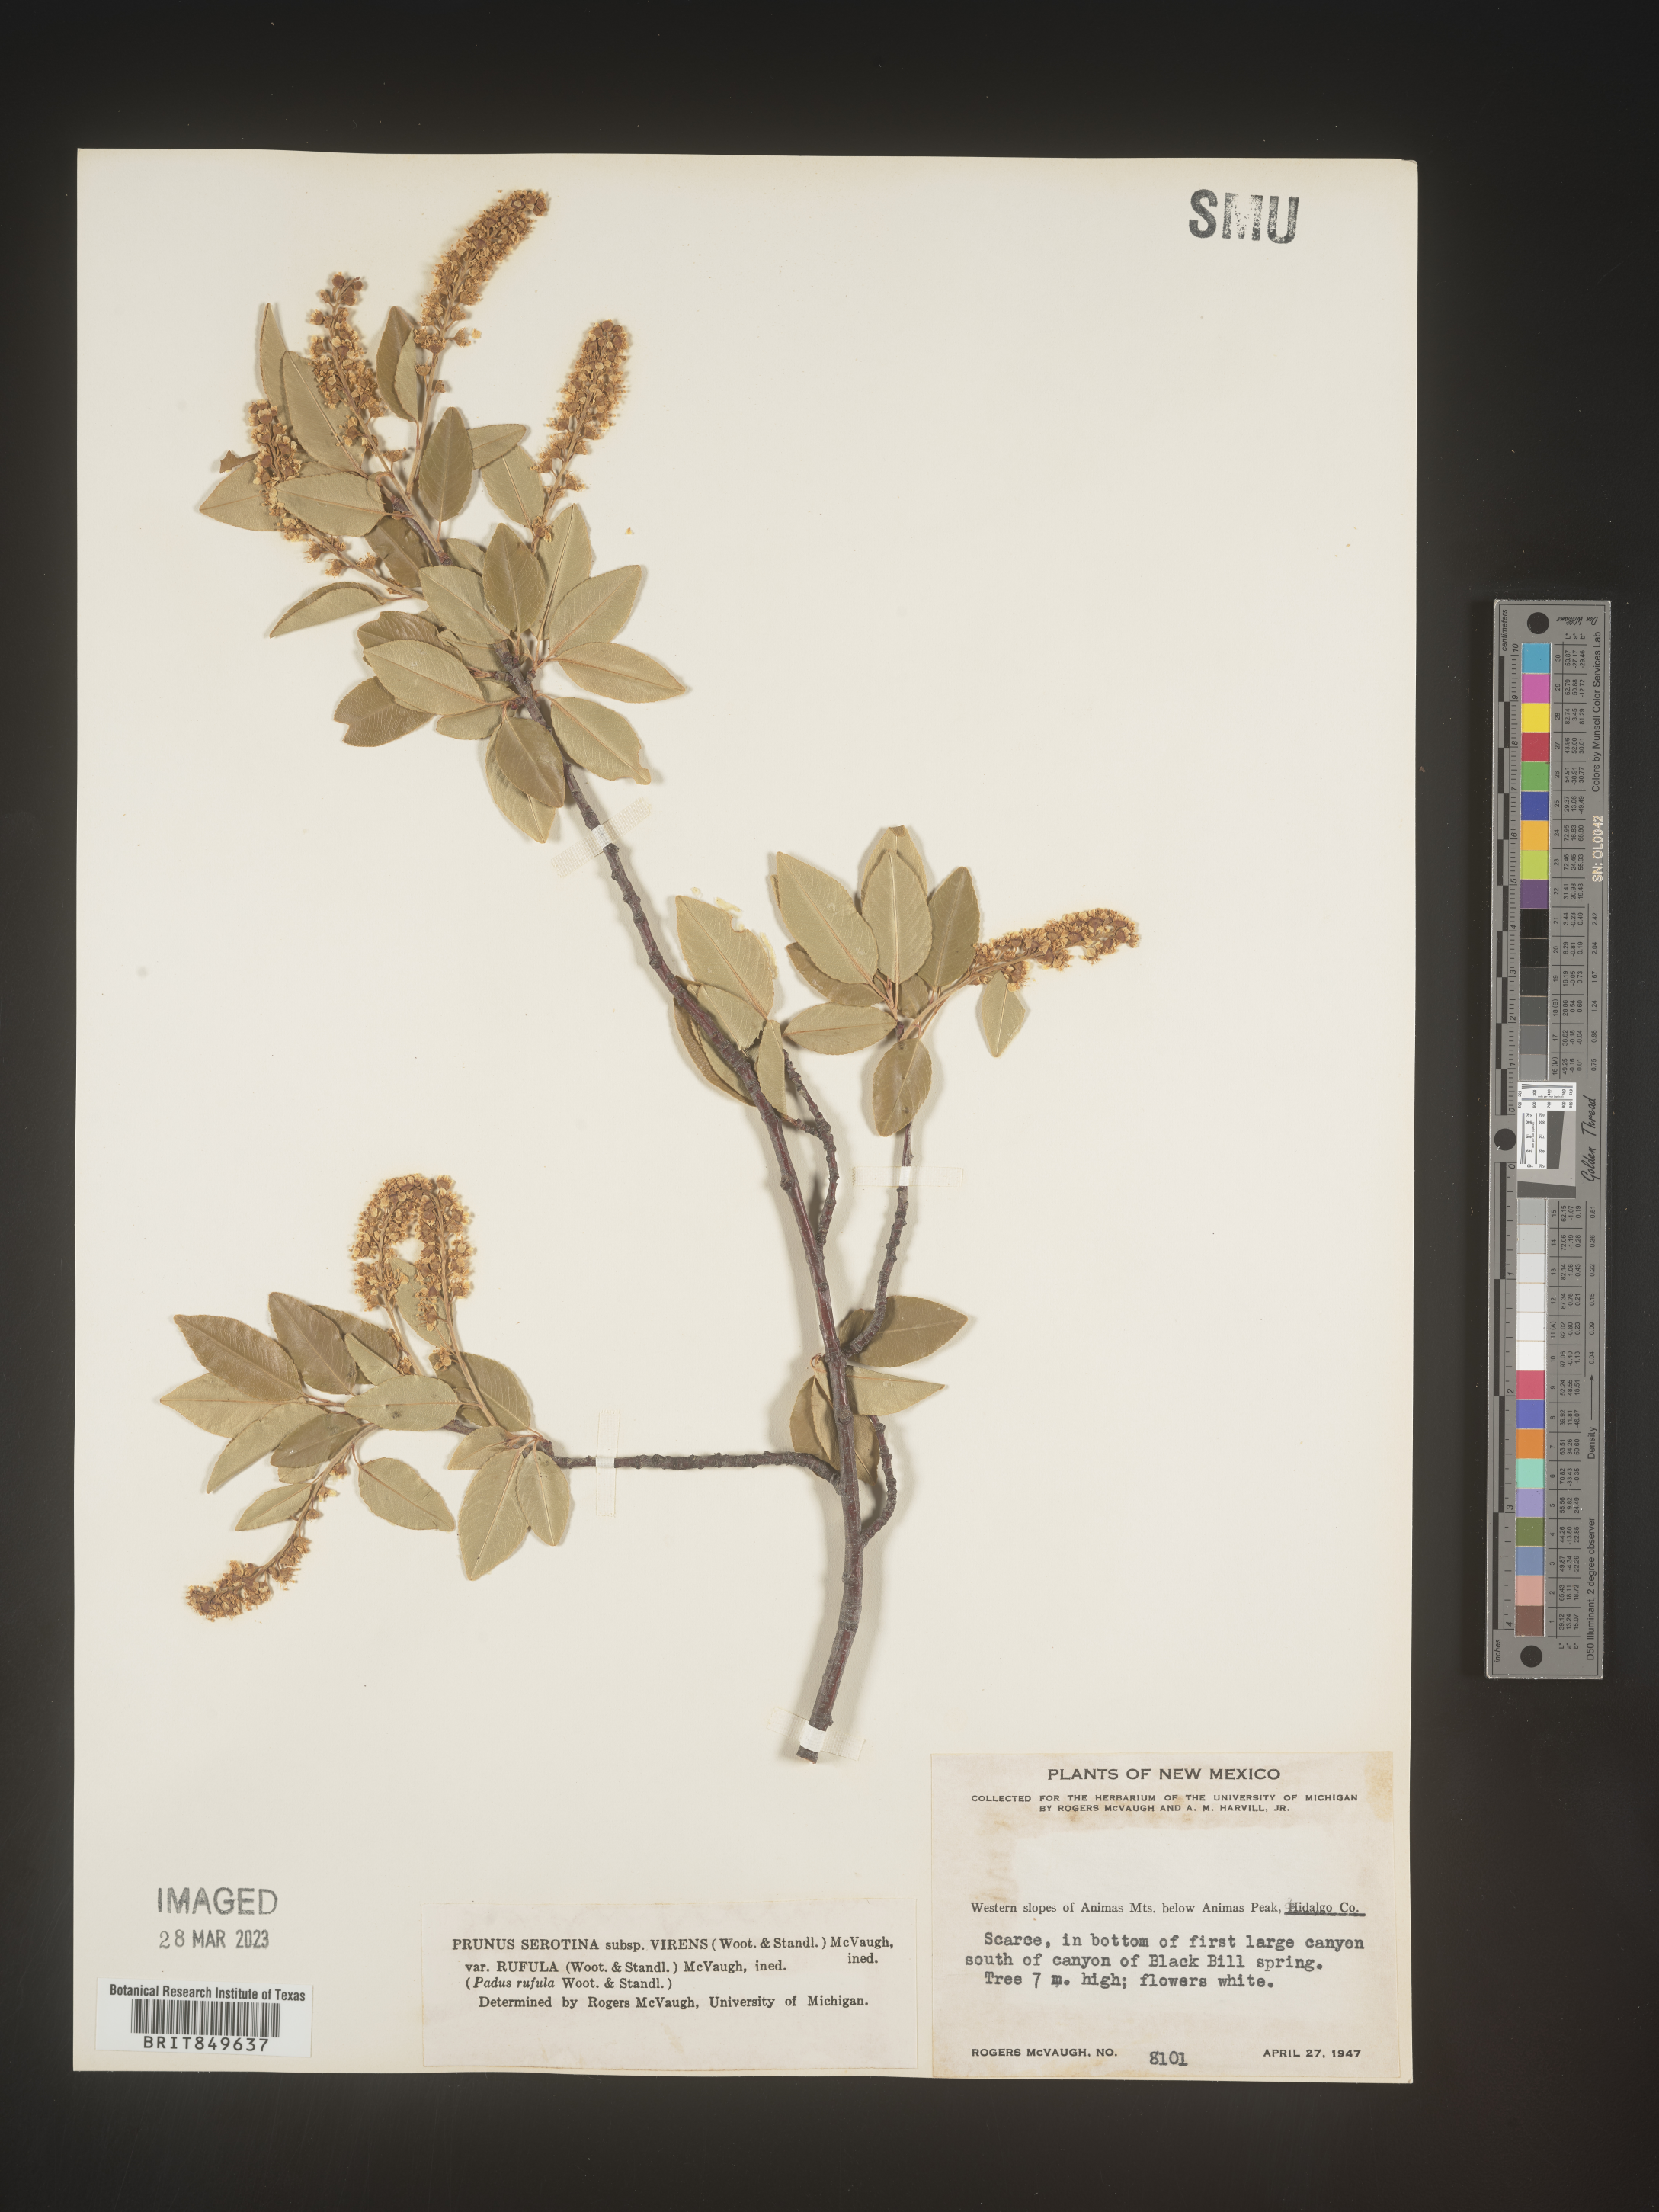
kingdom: Plantae
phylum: Tracheophyta
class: Magnoliopsida
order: Rosales
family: Rosaceae
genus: Prunus
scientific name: Prunus serotina
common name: Black cherry
